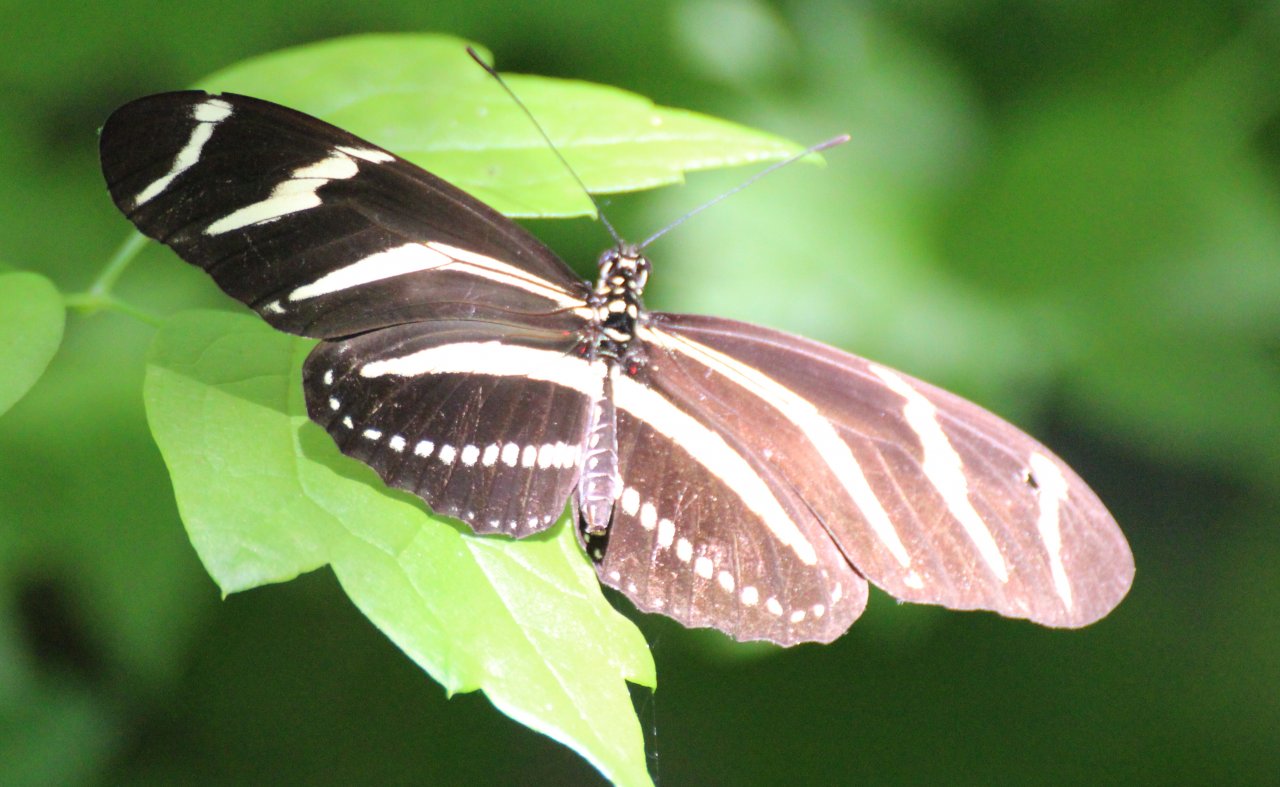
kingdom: Animalia
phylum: Arthropoda
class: Insecta
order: Lepidoptera
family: Nymphalidae
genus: Heliconius
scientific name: Heliconius charithonia
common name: Zebra Longwing
